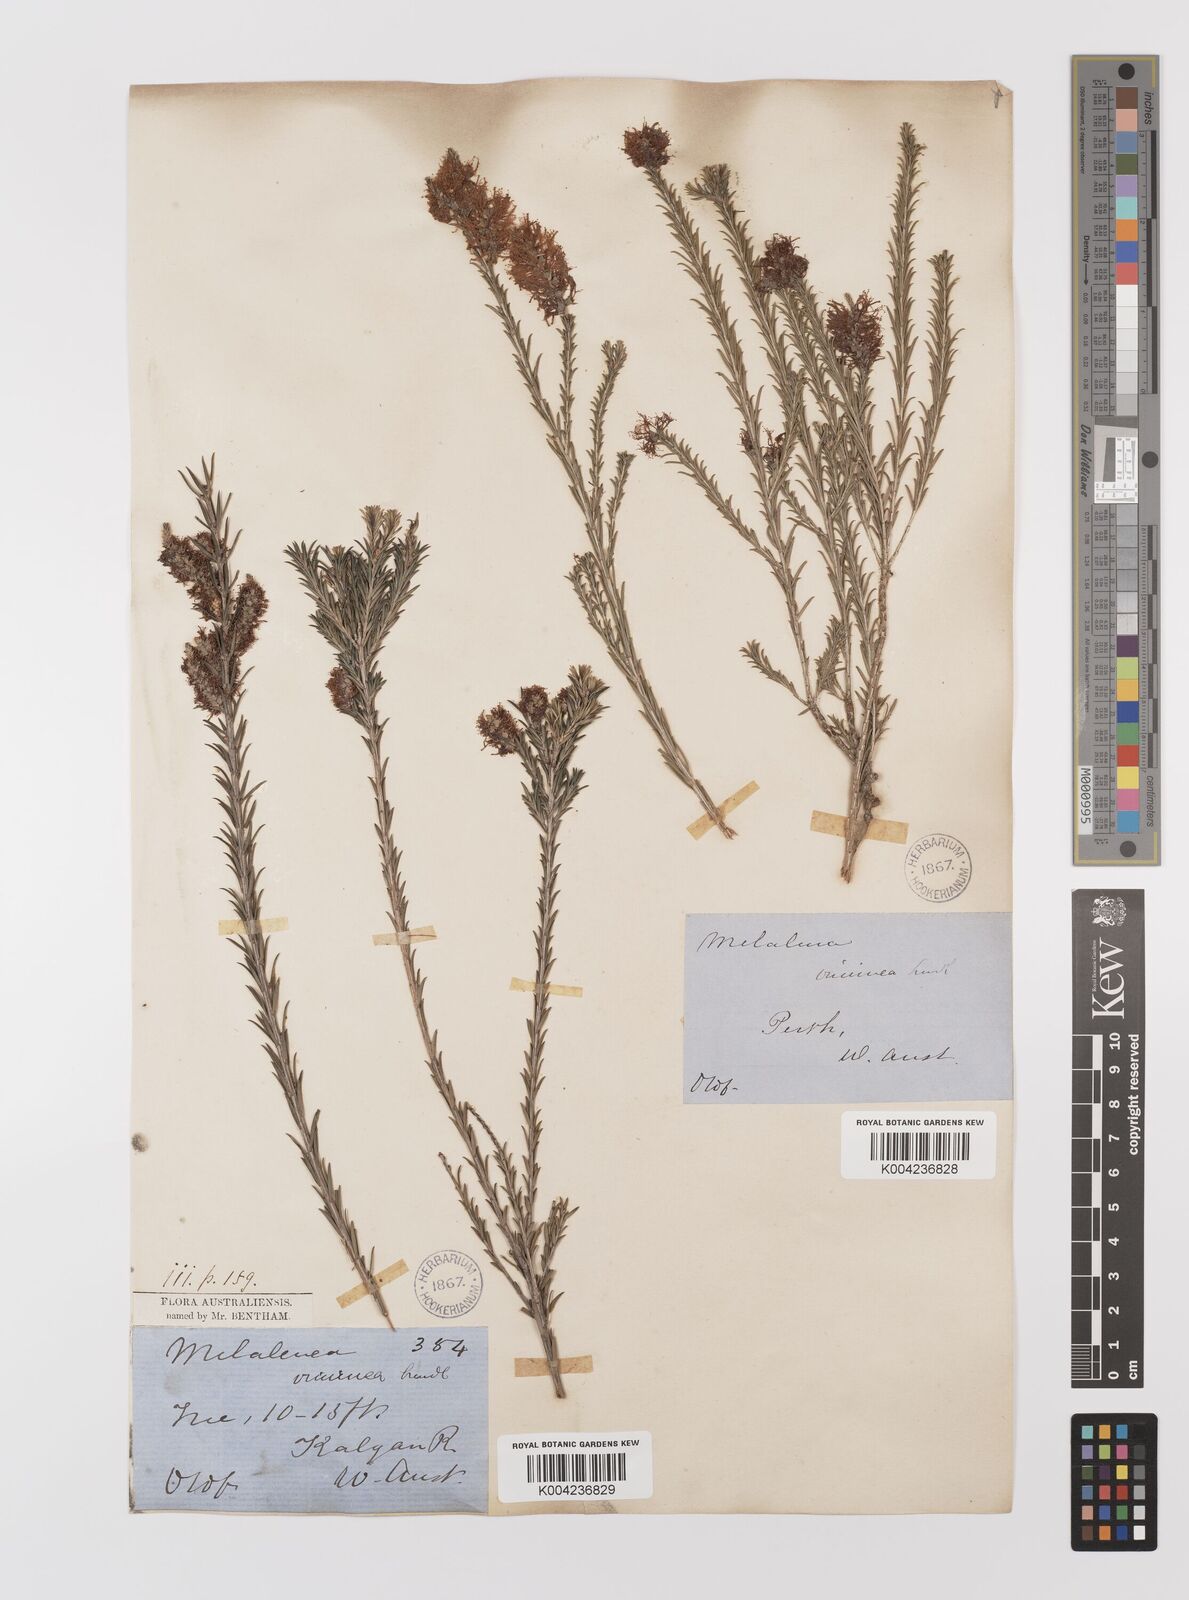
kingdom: Plantae
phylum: Tracheophyta
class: Magnoliopsida
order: Myrtales
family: Myrtaceae
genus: Melaleuca
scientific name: Melaleuca viminea
